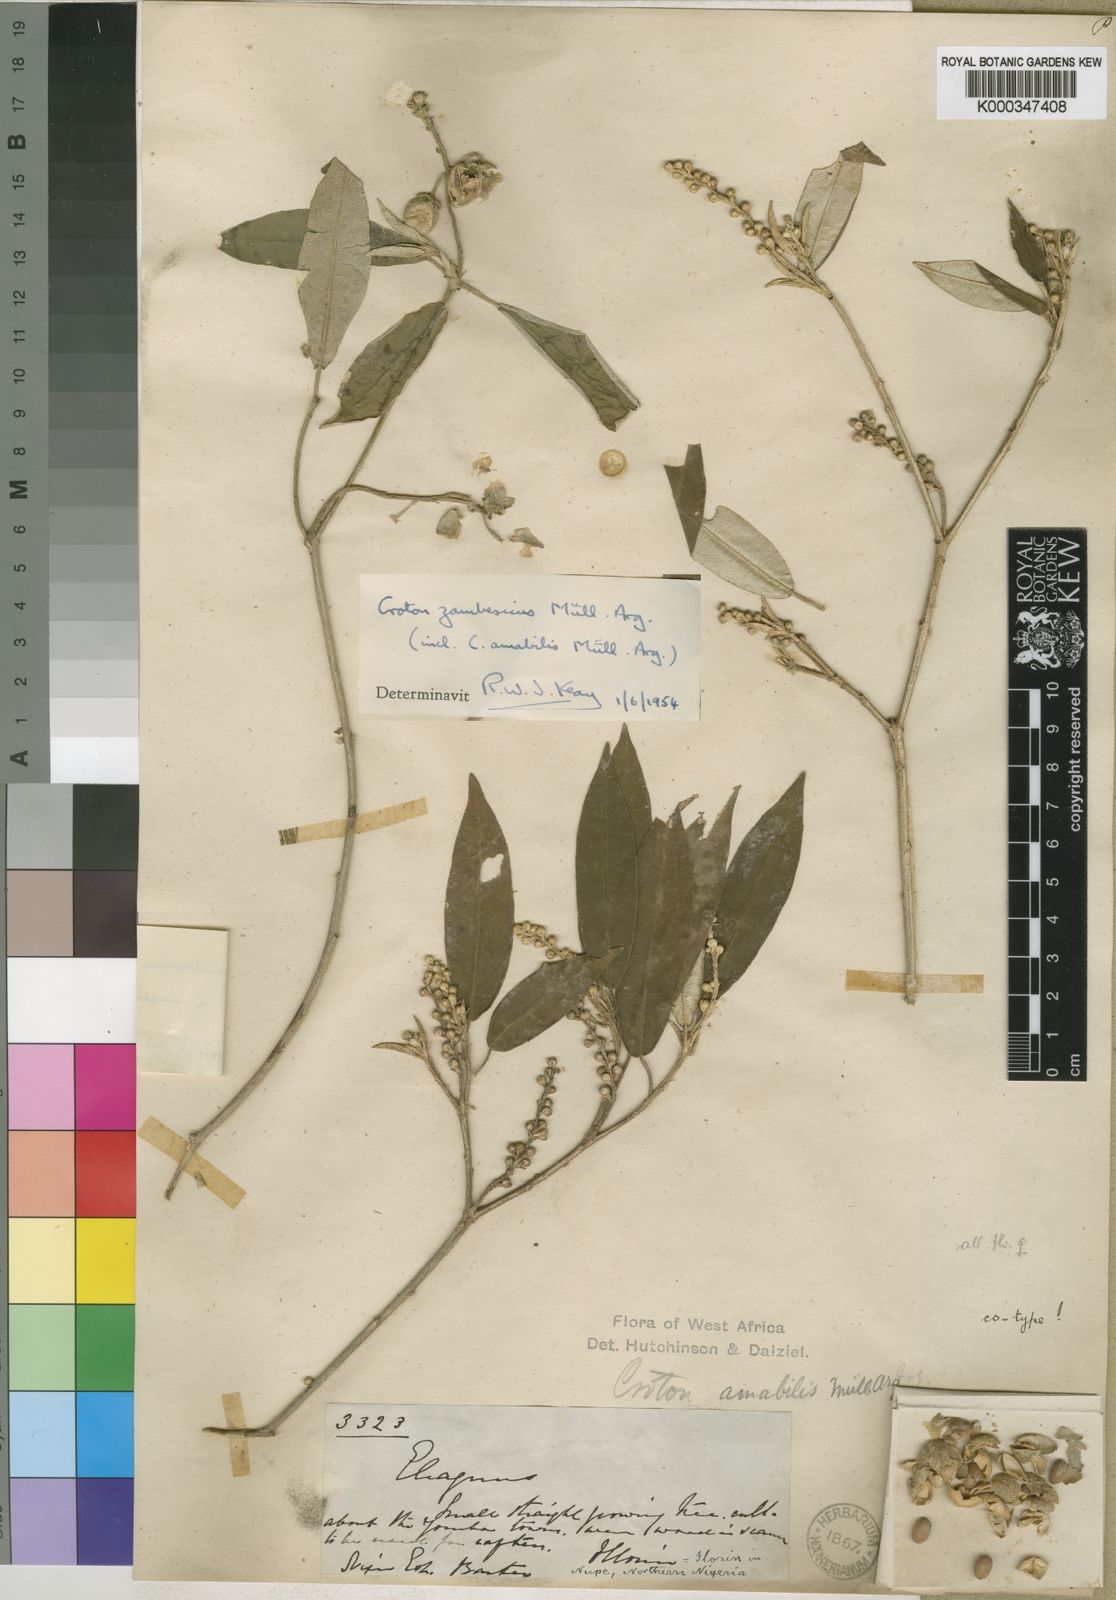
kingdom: Plantae
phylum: Tracheophyta
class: Magnoliopsida
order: Malpighiales
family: Euphorbiaceae
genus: Croton
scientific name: Croton
